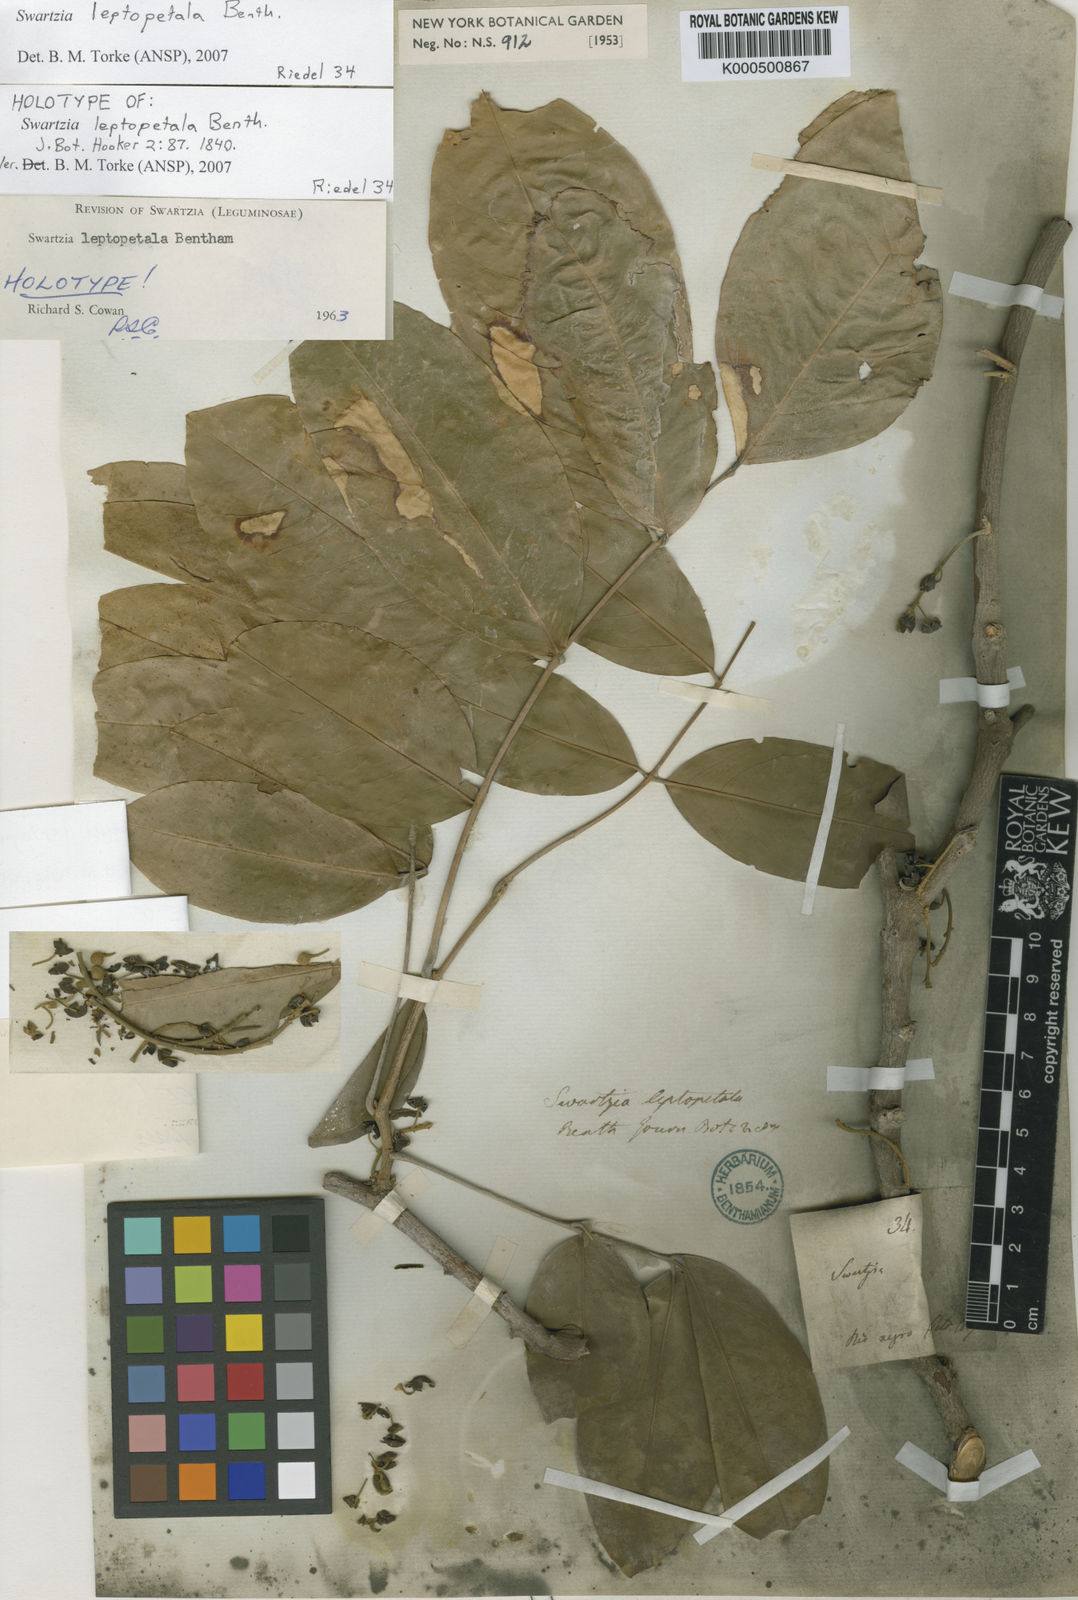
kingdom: Plantae
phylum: Tracheophyta
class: Magnoliopsida
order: Fabales
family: Fabaceae
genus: Swartzia
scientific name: Swartzia leptopetala
